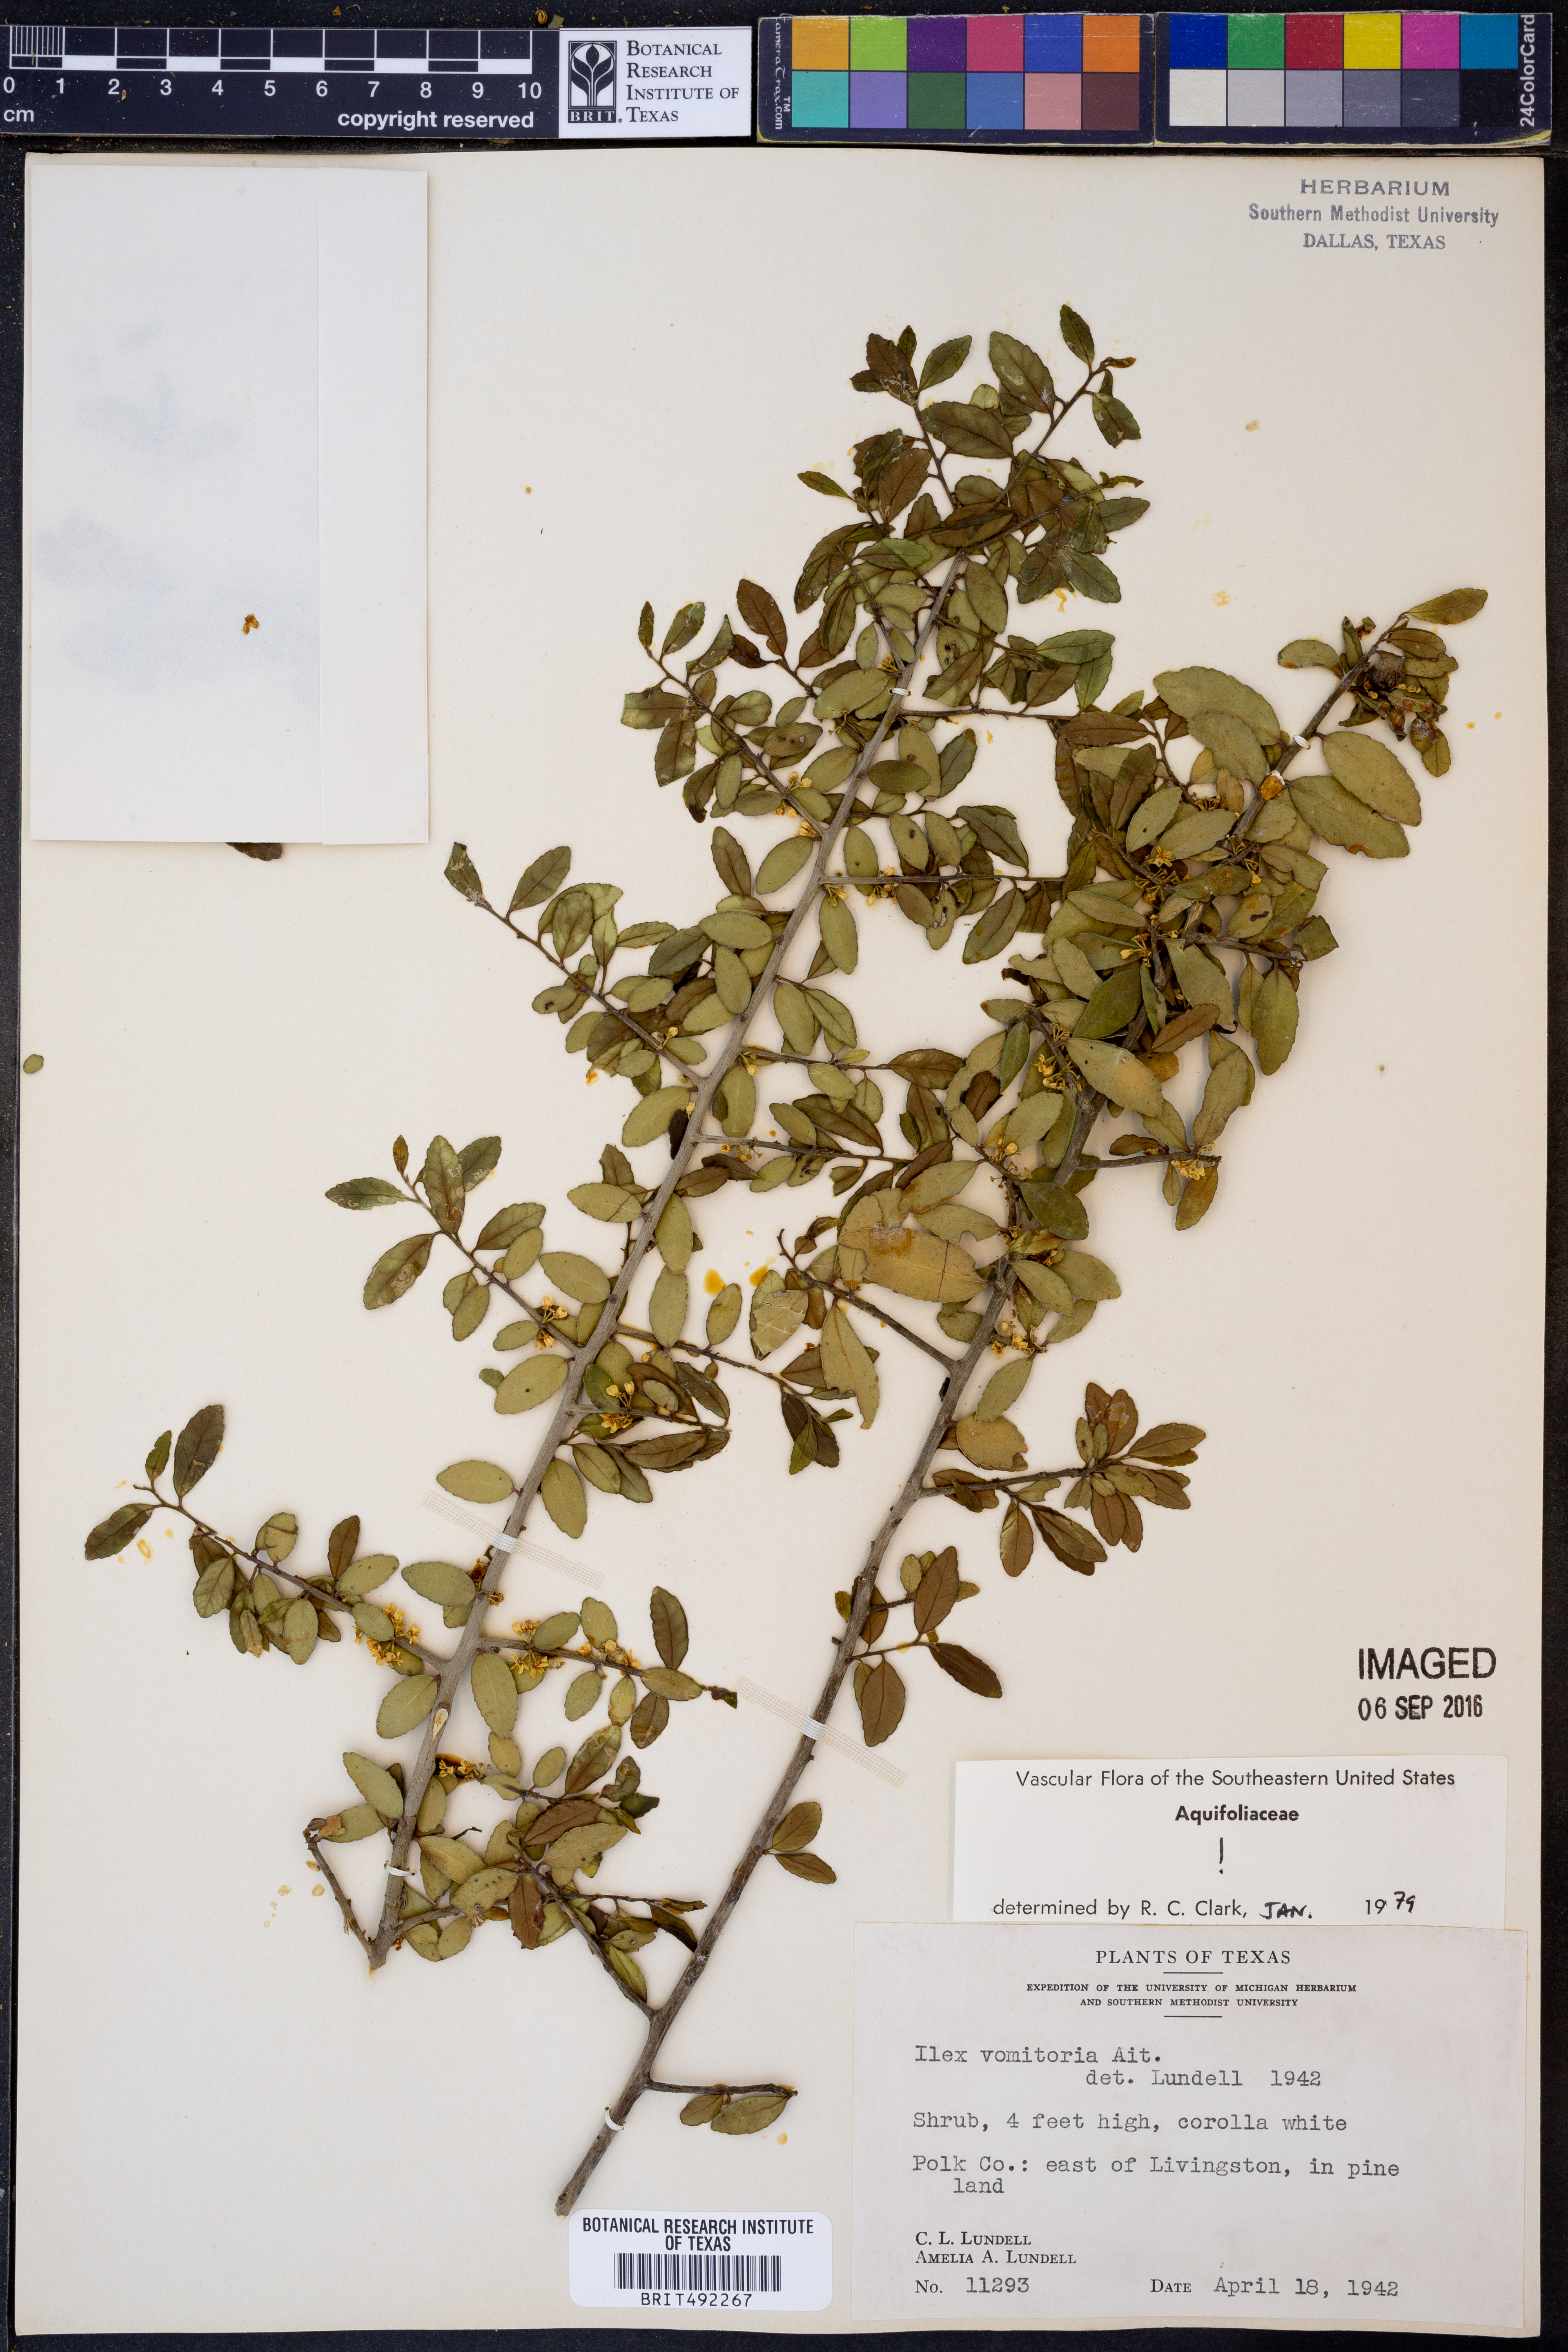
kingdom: Plantae
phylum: Tracheophyta
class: Magnoliopsida
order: Aquifoliales
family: Aquifoliaceae
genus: Ilex
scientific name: Ilex vomitoria
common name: Yaupon holly
